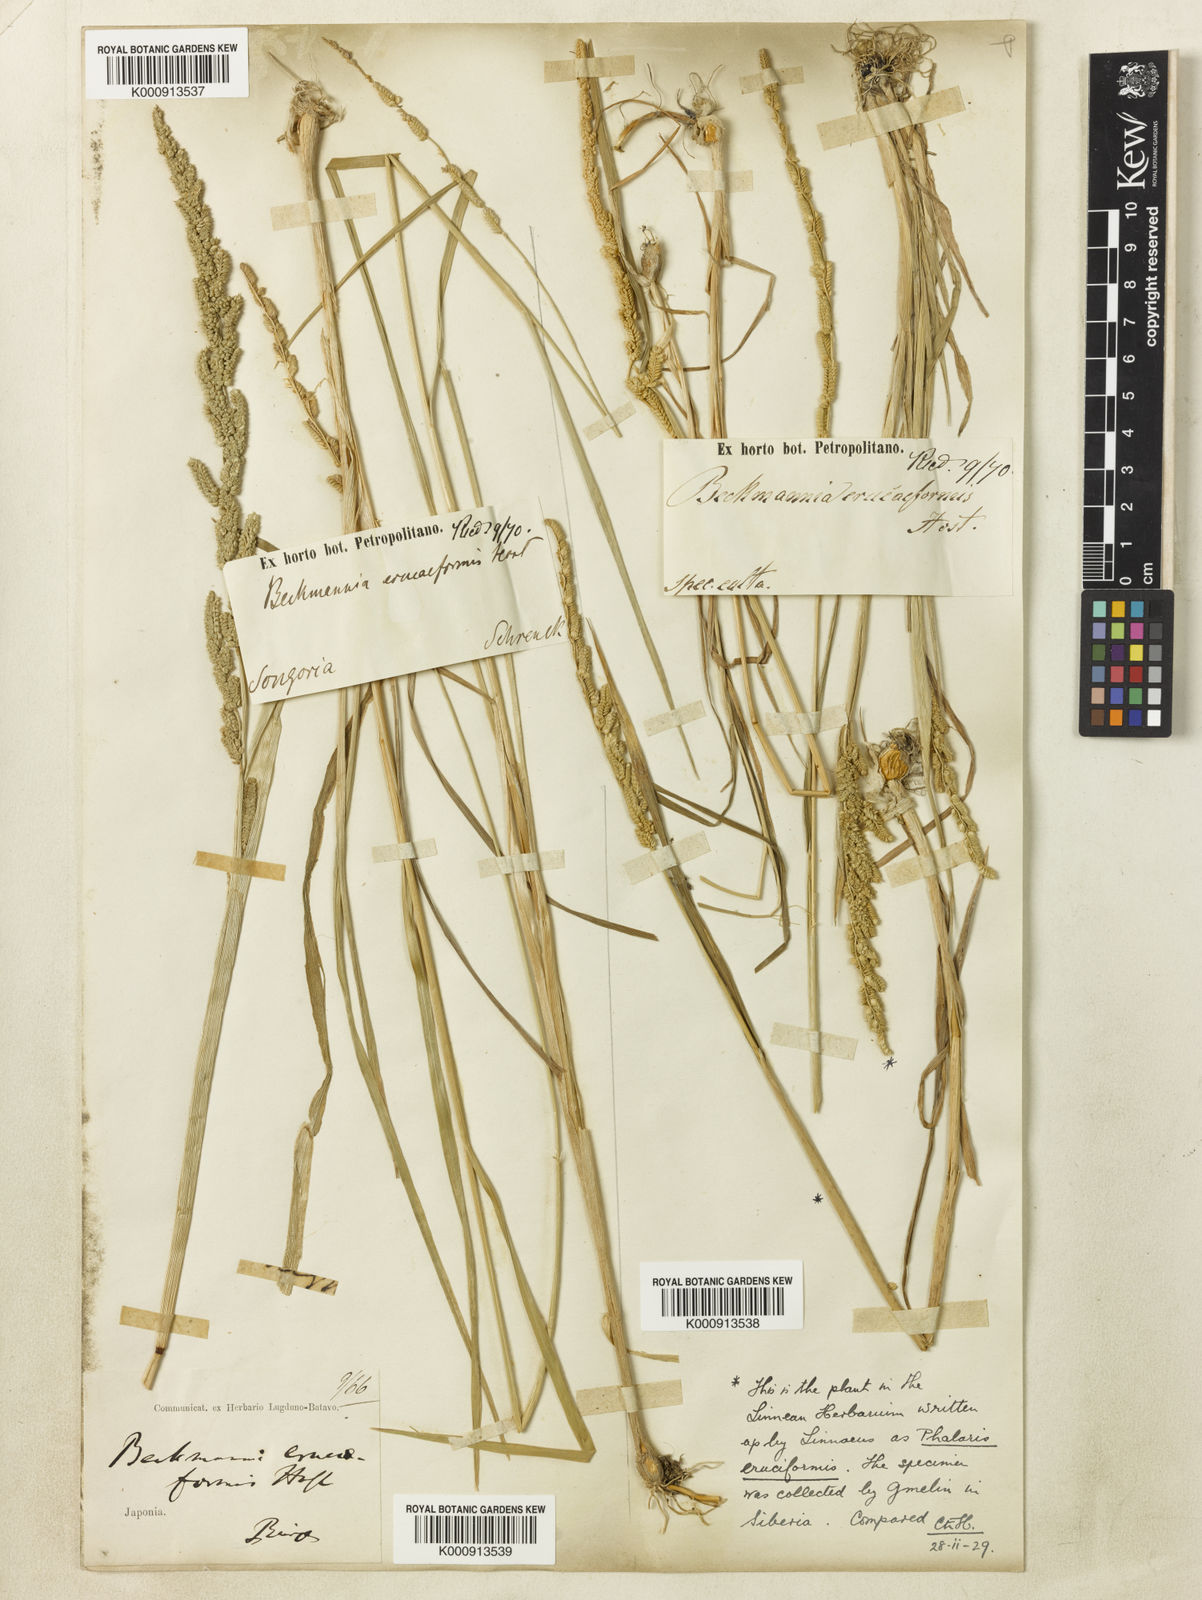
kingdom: Plantae
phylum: Tracheophyta
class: Liliopsida
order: Poales
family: Poaceae
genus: Beckmannia
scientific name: Beckmannia eruciformis
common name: European slough-grass
